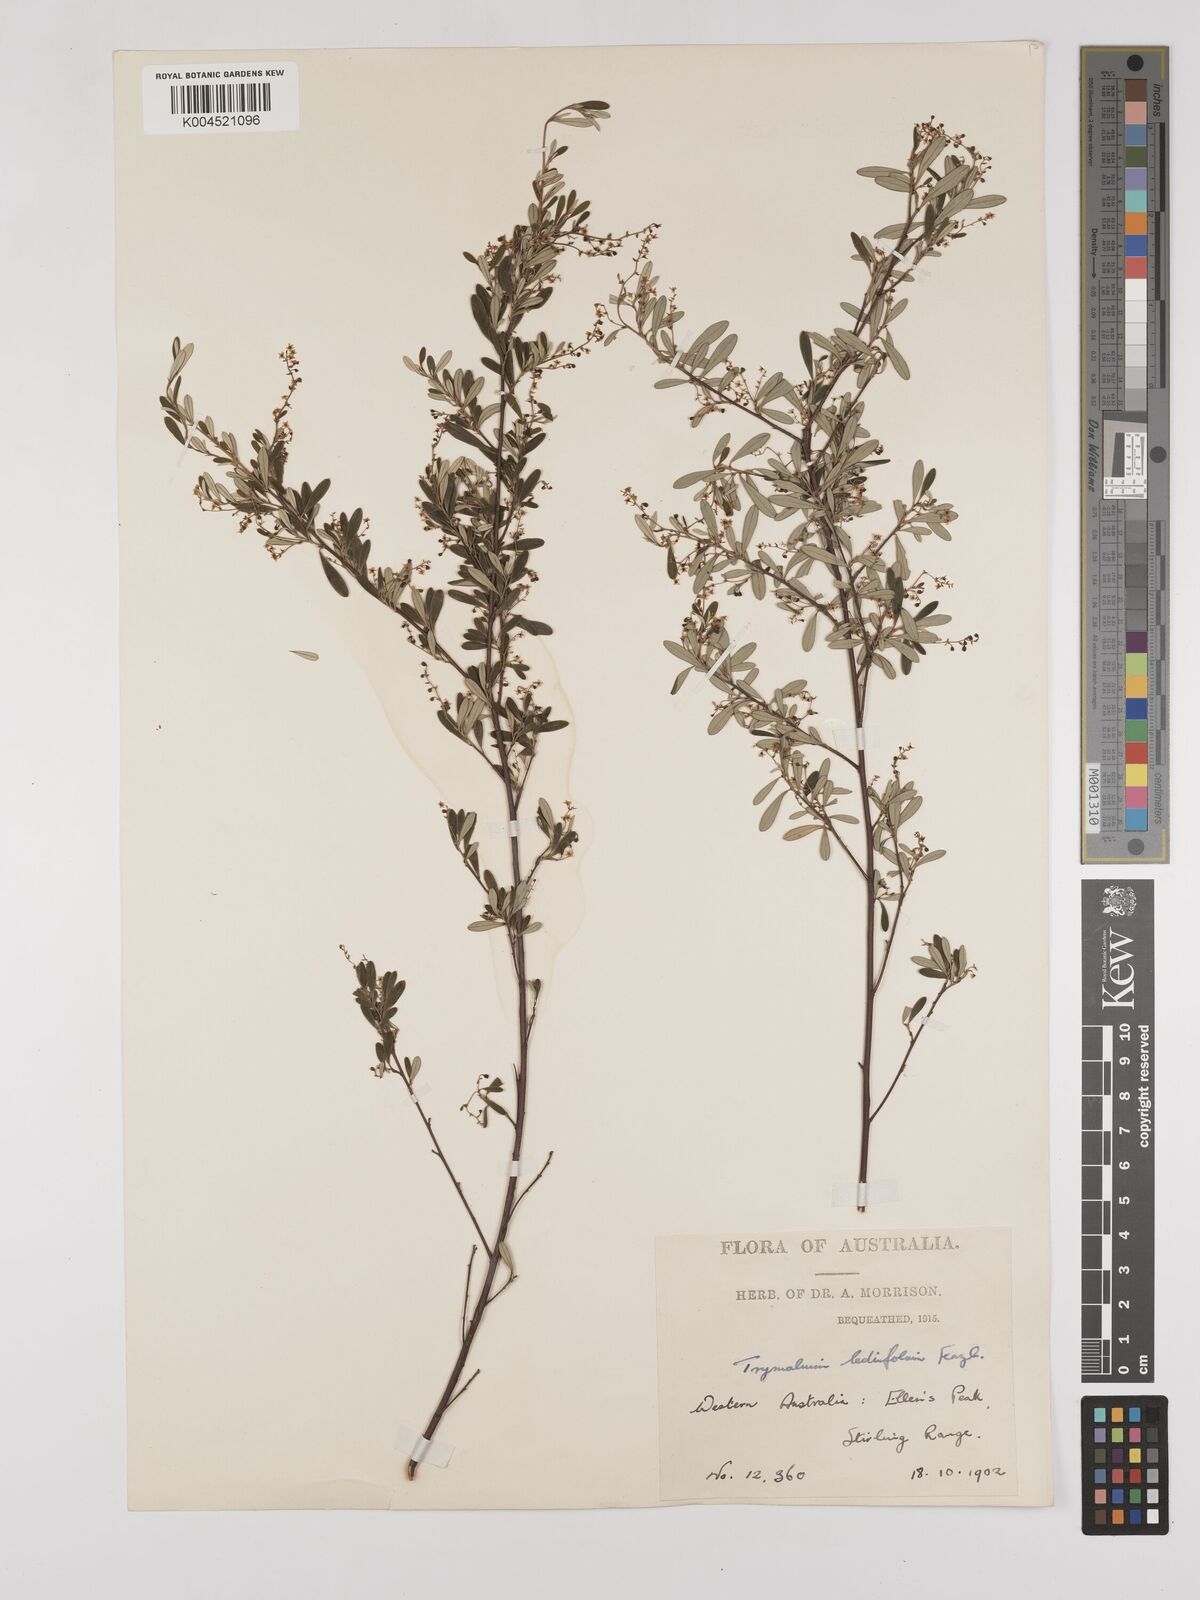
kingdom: Plantae
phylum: Tracheophyta
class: Magnoliopsida
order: Rosales
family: Rhamnaceae
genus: Trymalium
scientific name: Trymalium ledifolium
